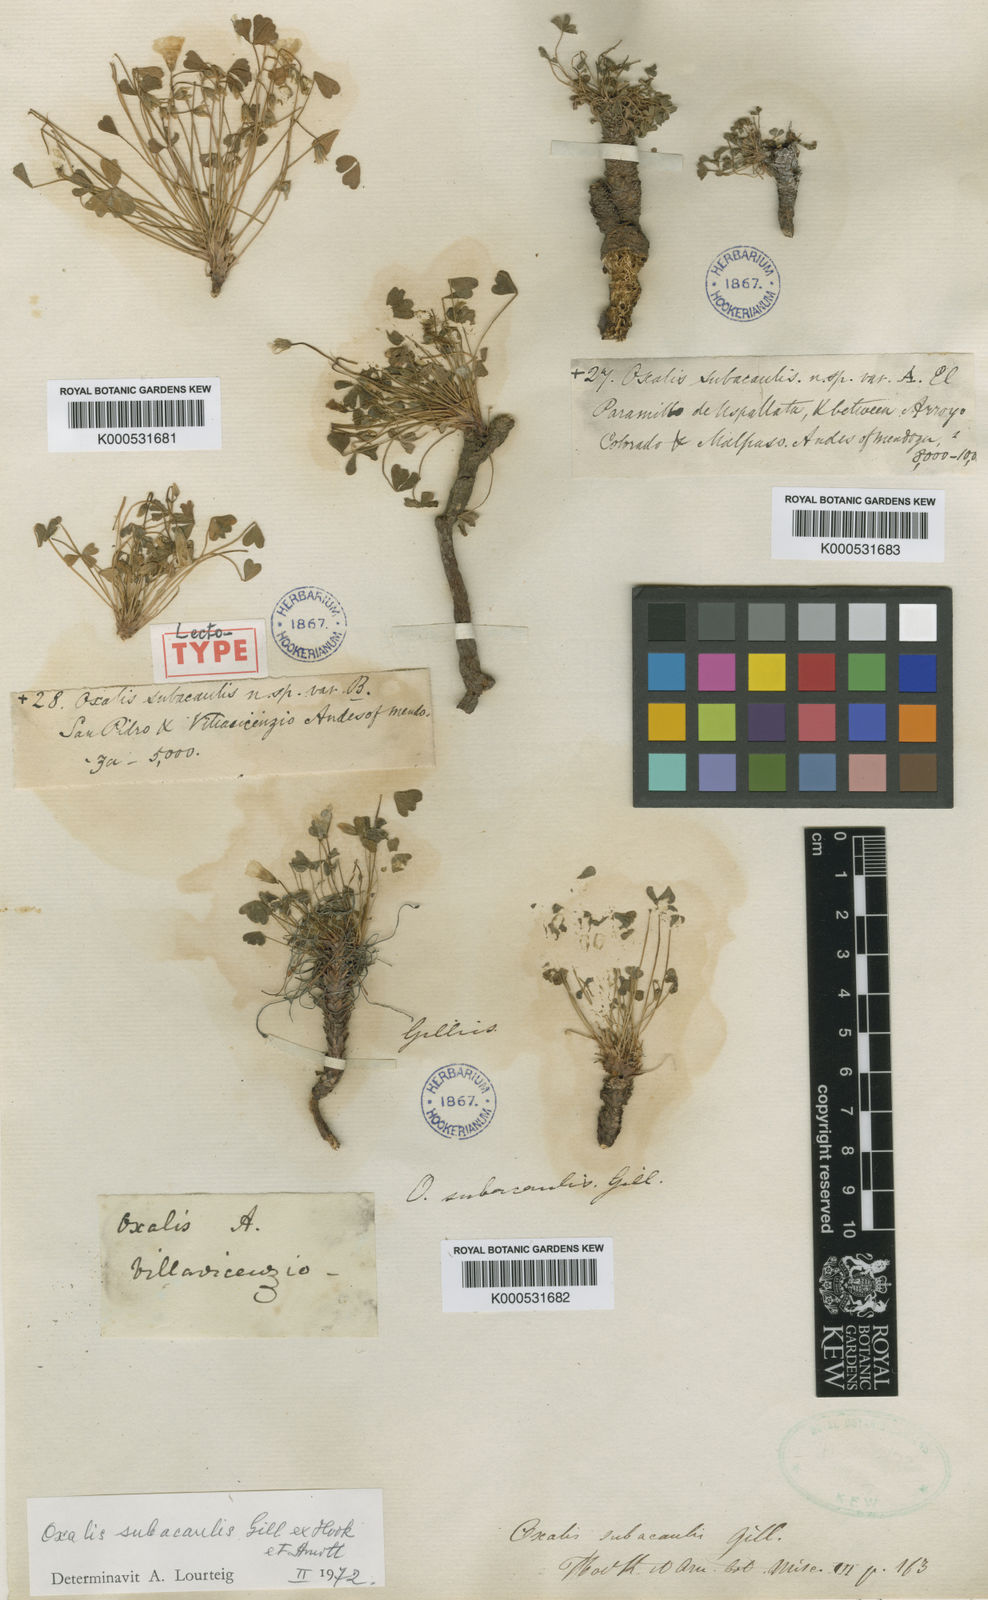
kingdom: Plantae
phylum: Tracheophyta
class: Magnoliopsida
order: Oxalidales
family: Oxalidaceae
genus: Oxalis
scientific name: Oxalis subacaulis
